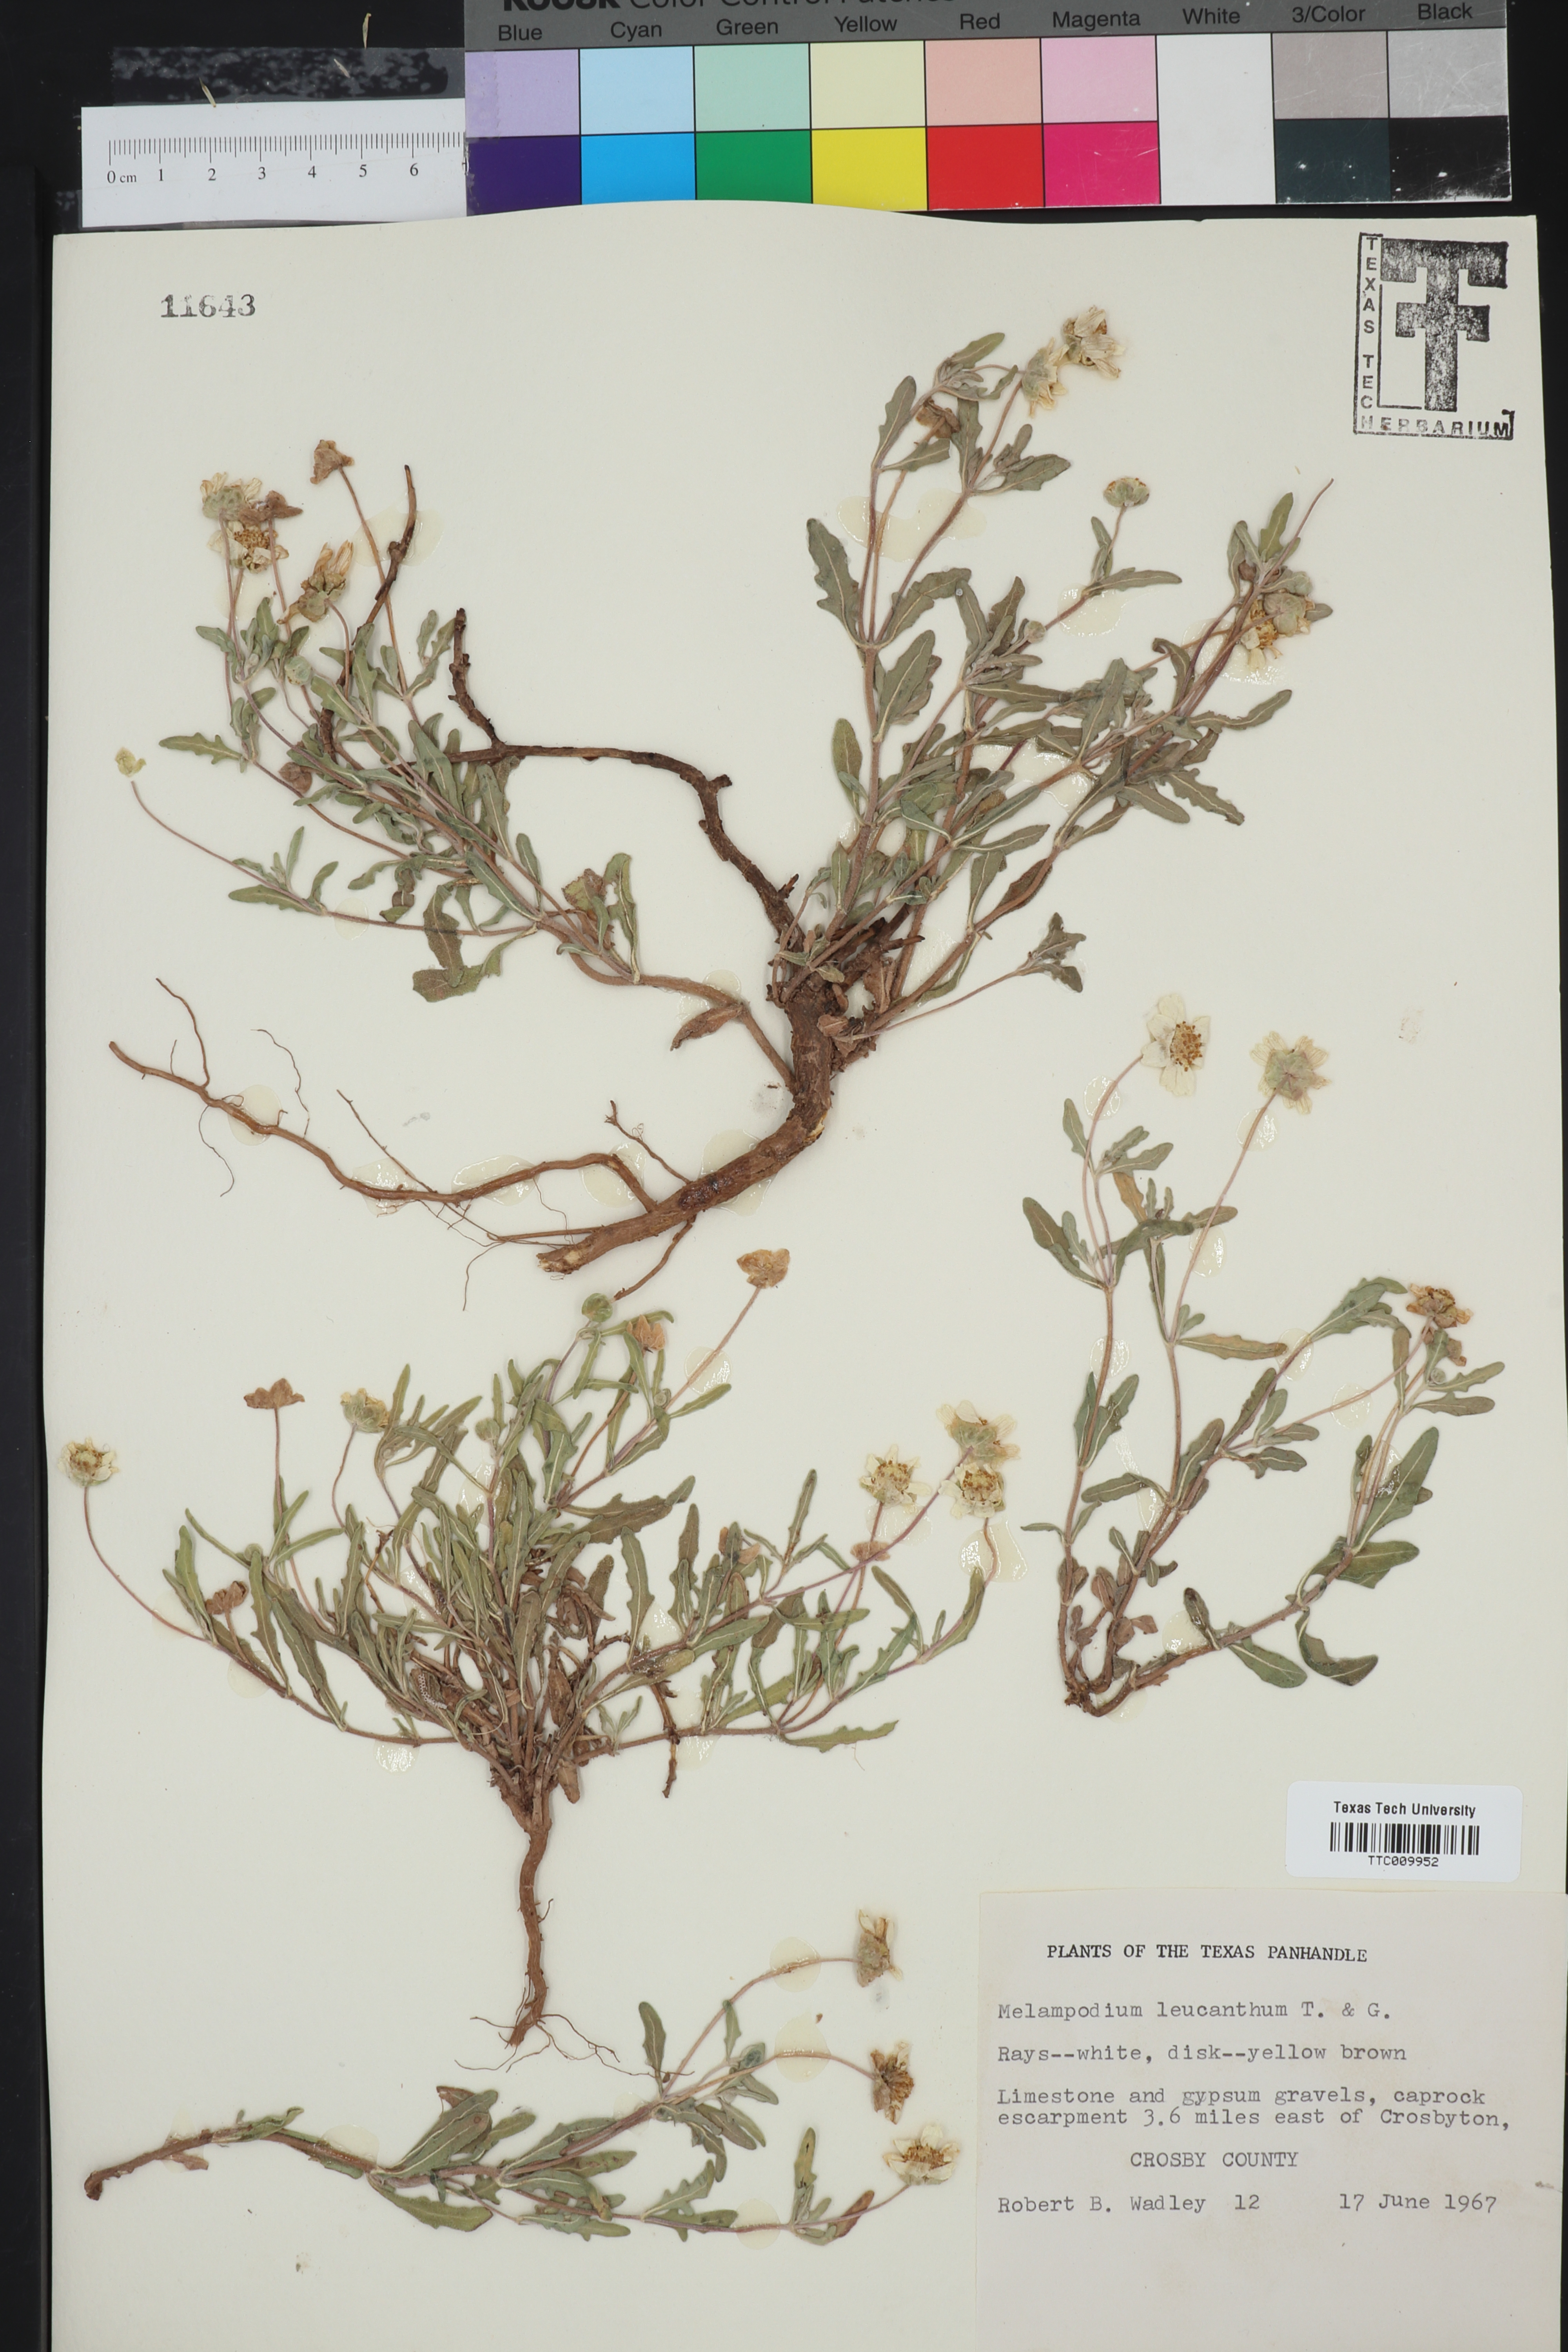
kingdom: Plantae
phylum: Tracheophyta
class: Magnoliopsida
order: Asterales
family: Asteraceae
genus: Melampodium
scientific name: Melampodium leucanthum
